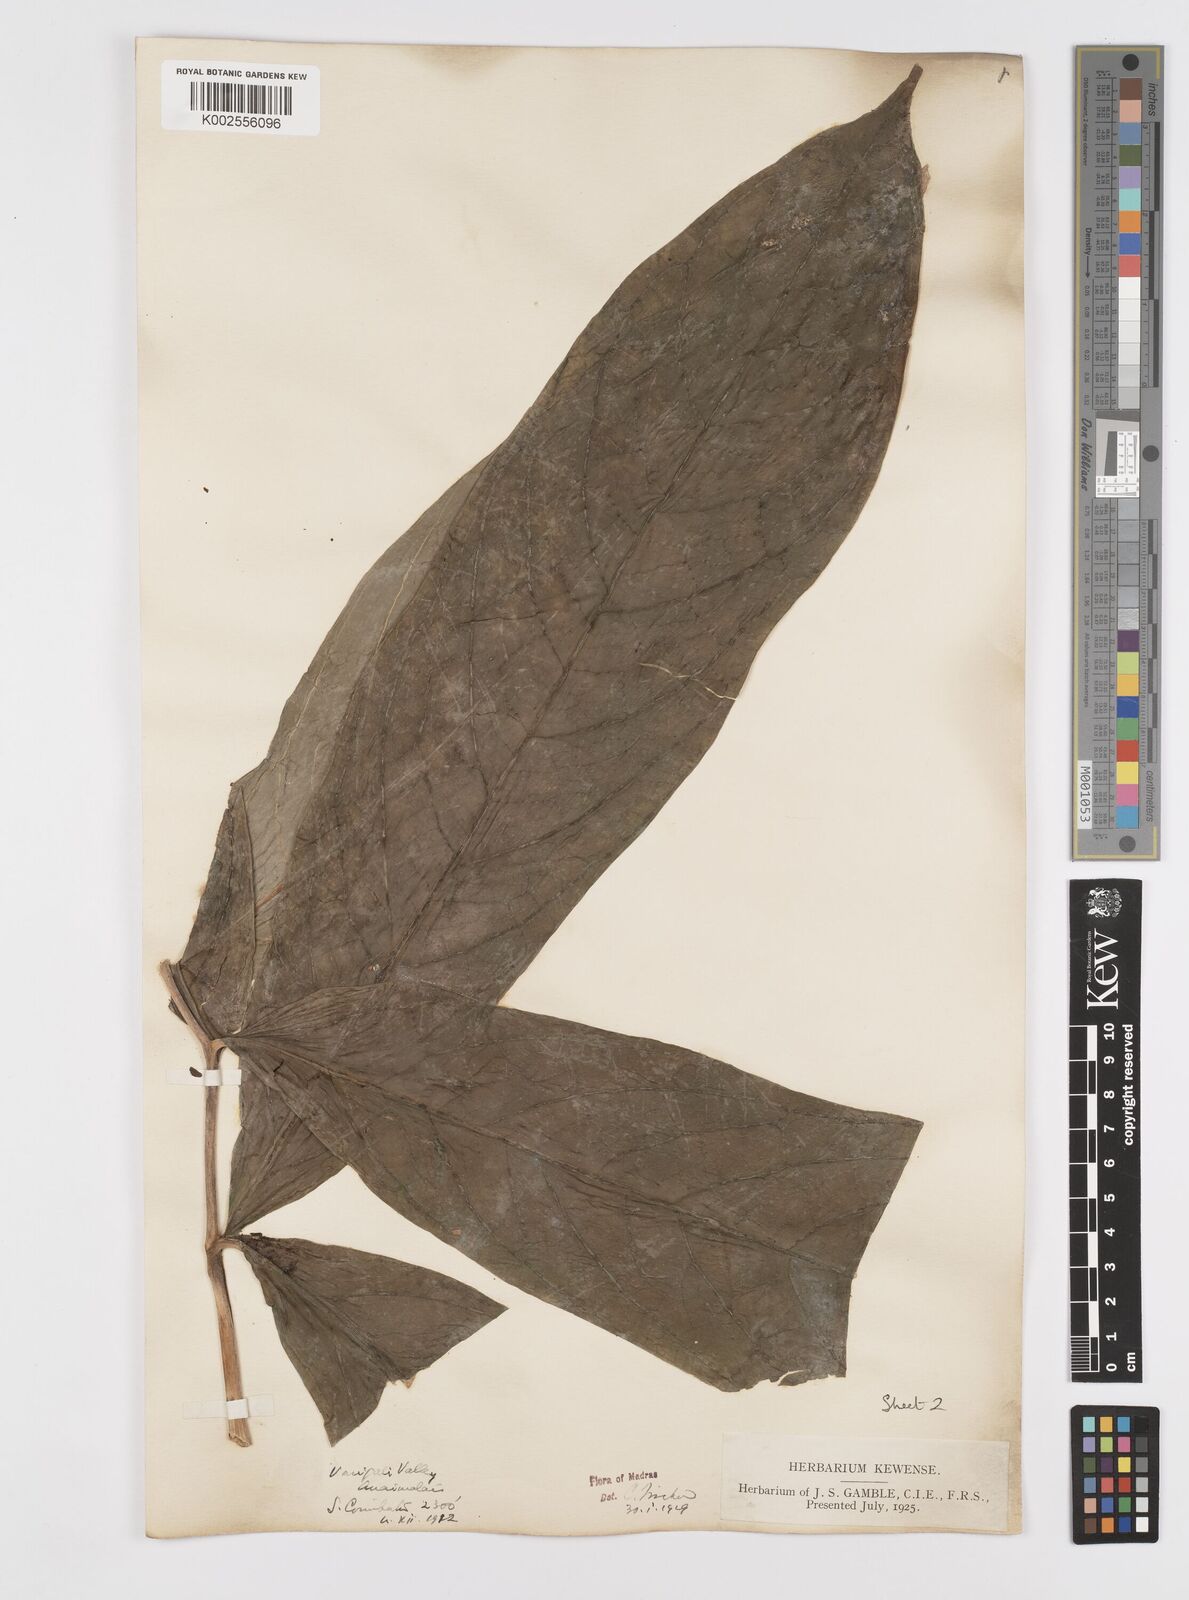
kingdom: Plantae
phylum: Tracheophyta
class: Liliopsida
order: Alismatales
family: Araceae
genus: Anaphyllum
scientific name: Anaphyllum wightii
